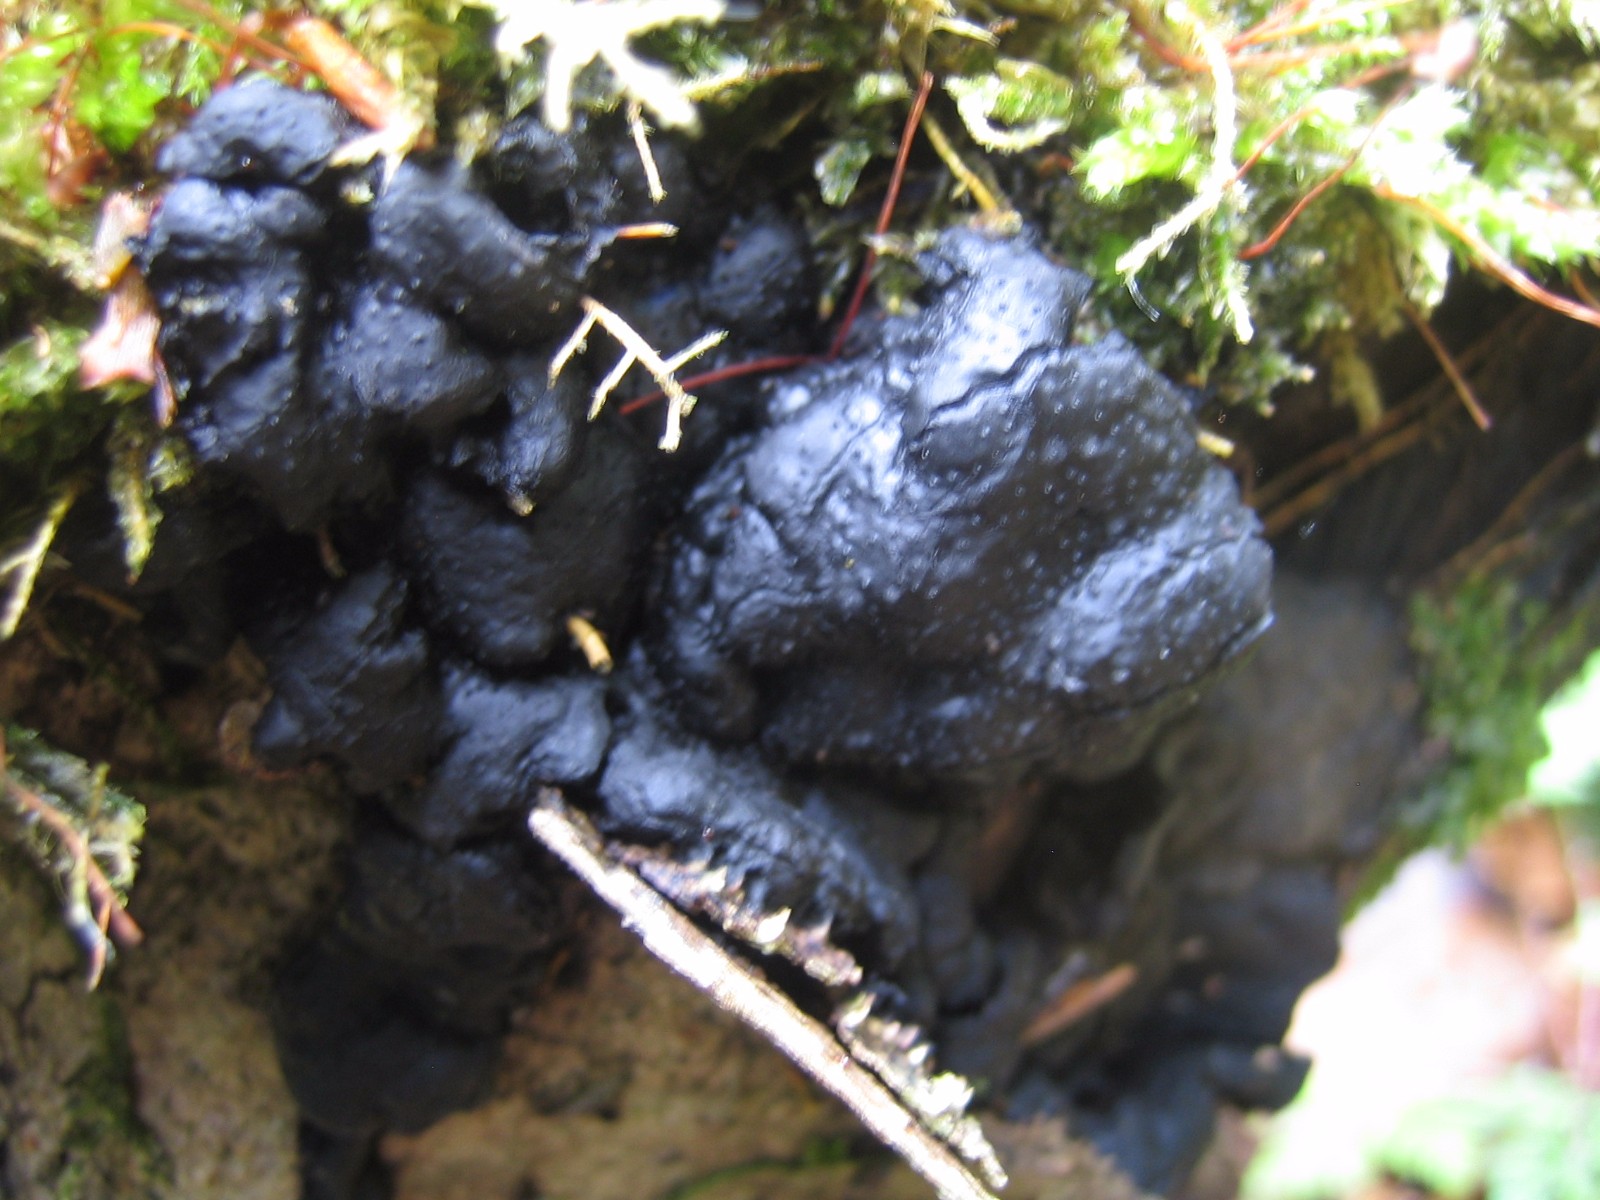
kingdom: Fungi
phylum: Ascomycota
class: Sordariomycetes
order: Xylariales
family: Xylariaceae
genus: Kretzschmaria
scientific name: Kretzschmaria deusta
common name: stor kulsvamp
